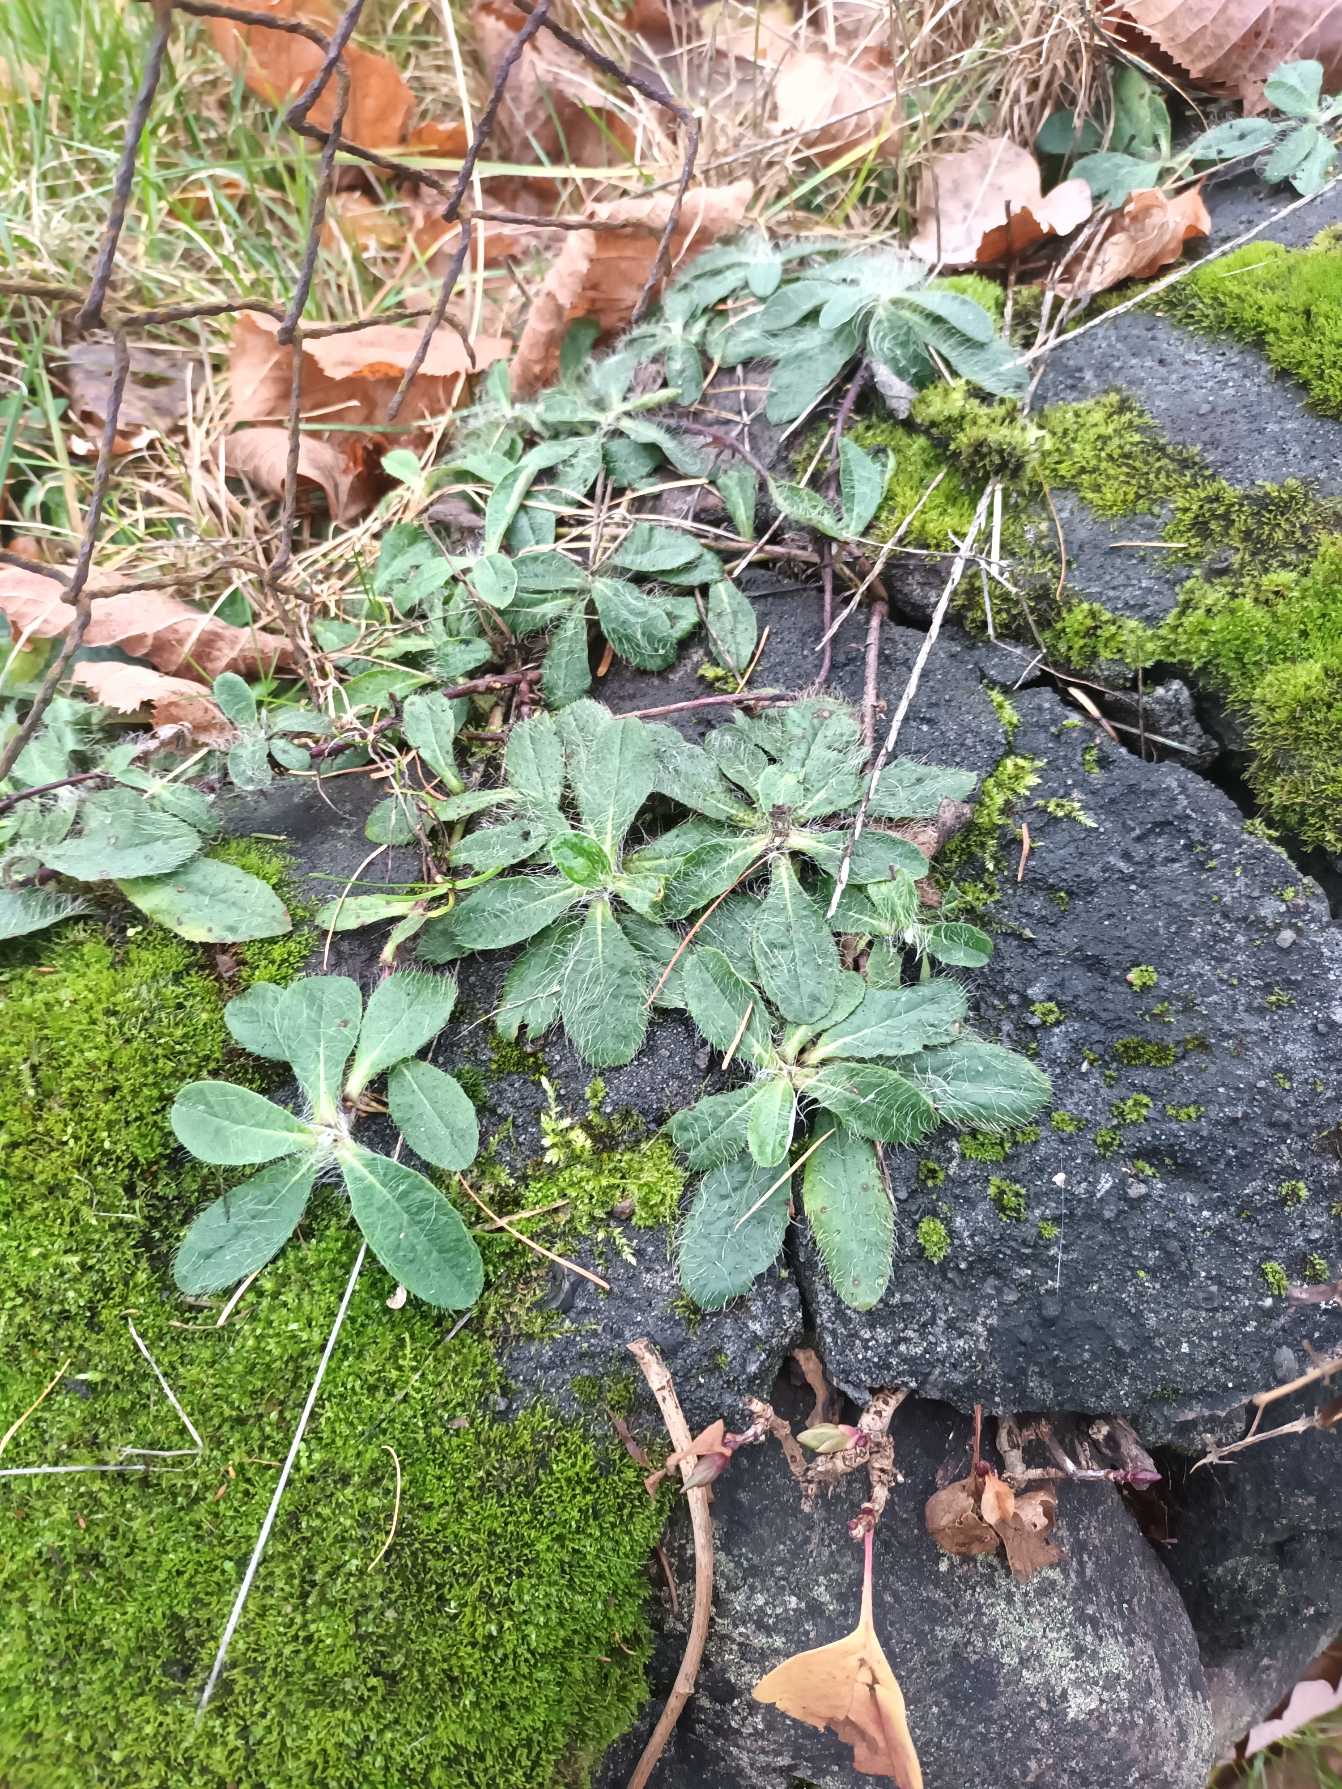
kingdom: Plantae
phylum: Tracheophyta
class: Magnoliopsida
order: Asterales
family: Asteraceae
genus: Pilosella
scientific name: Pilosella officinarum
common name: Håret høgeurt
